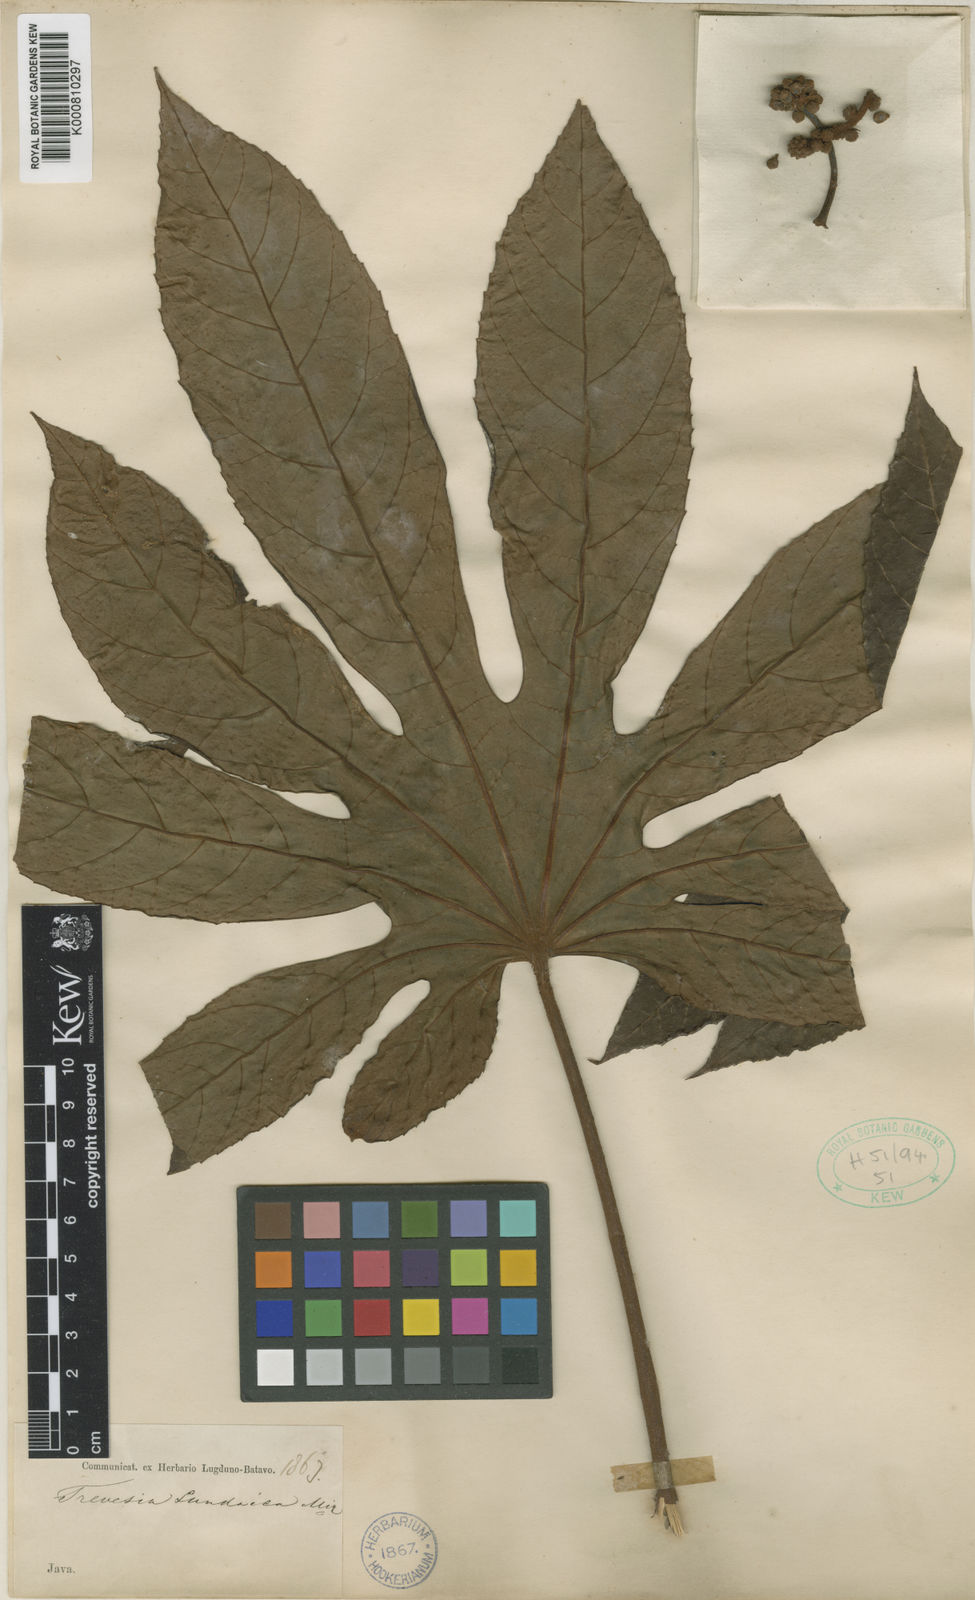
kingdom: Plantae
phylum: Tracheophyta
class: Magnoliopsida
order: Apiales
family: Araliaceae
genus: Trevesia
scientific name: Trevesia sundaica
